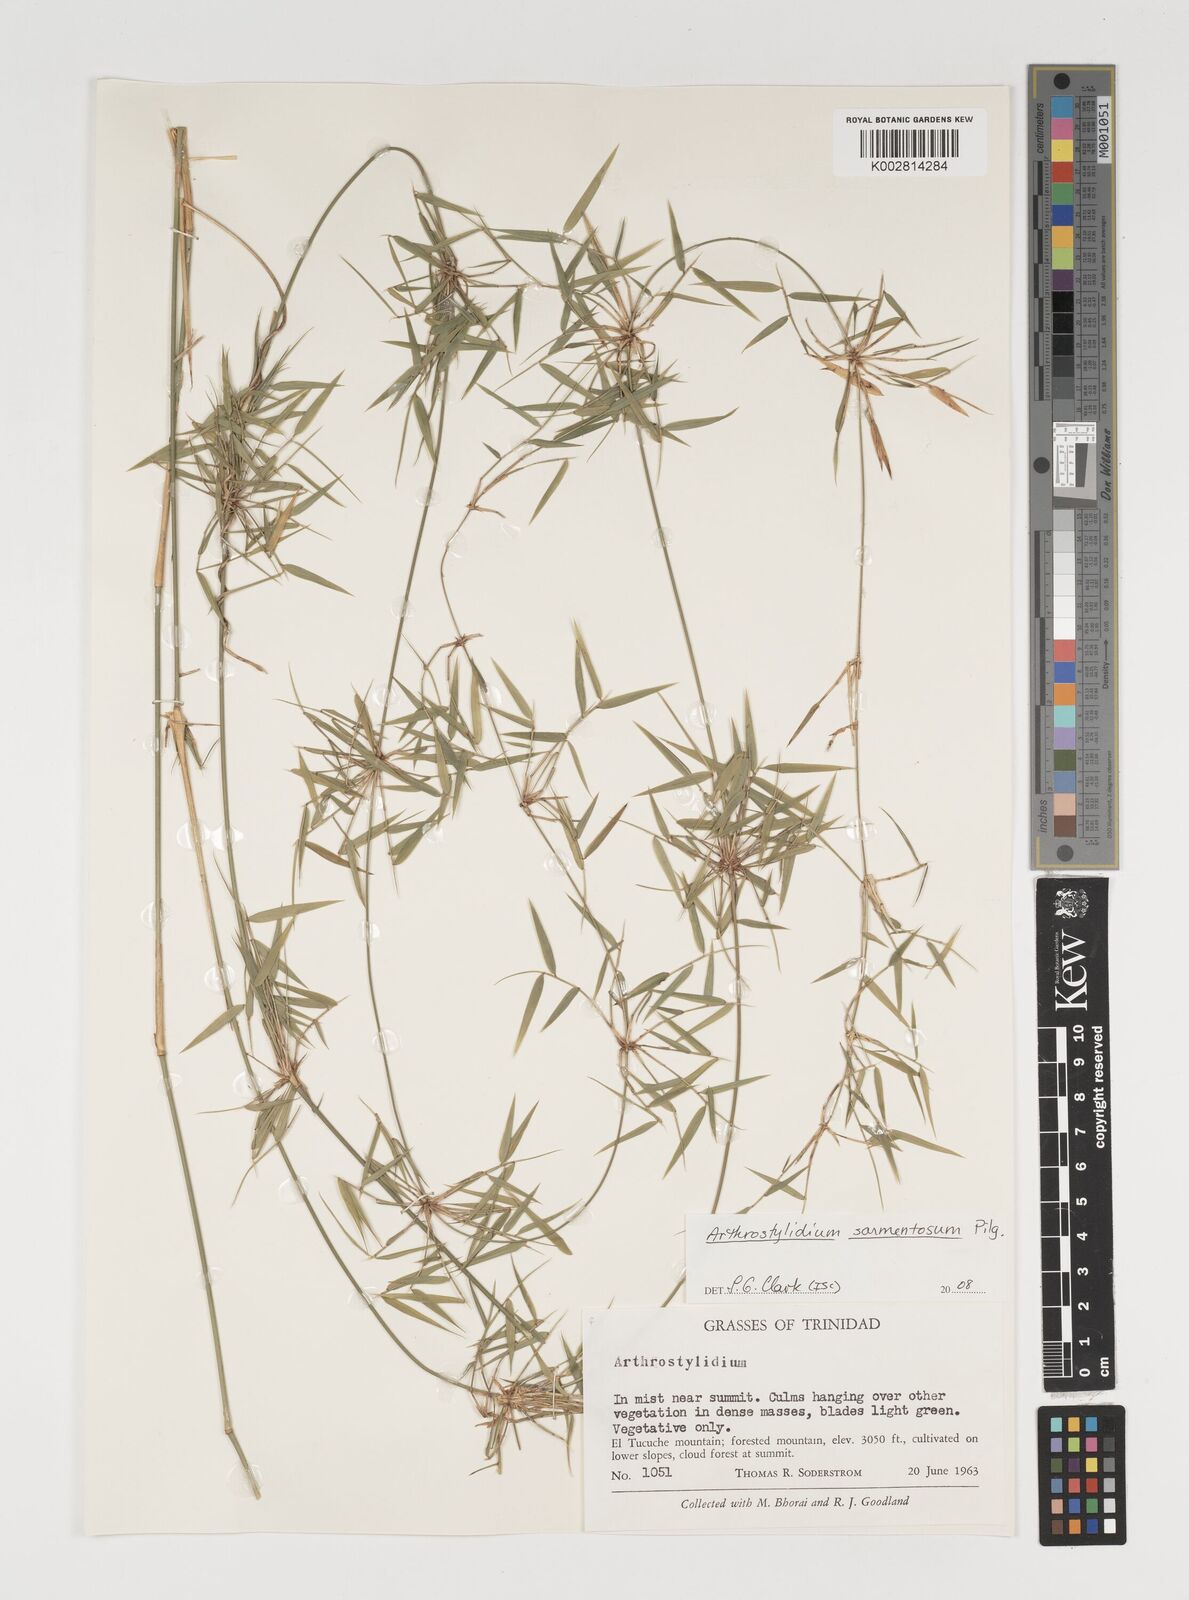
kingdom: Plantae
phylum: Tracheophyta
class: Liliopsida
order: Poales
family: Poaceae
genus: Arthrostylidium
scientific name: Arthrostylidium sarmentosum
